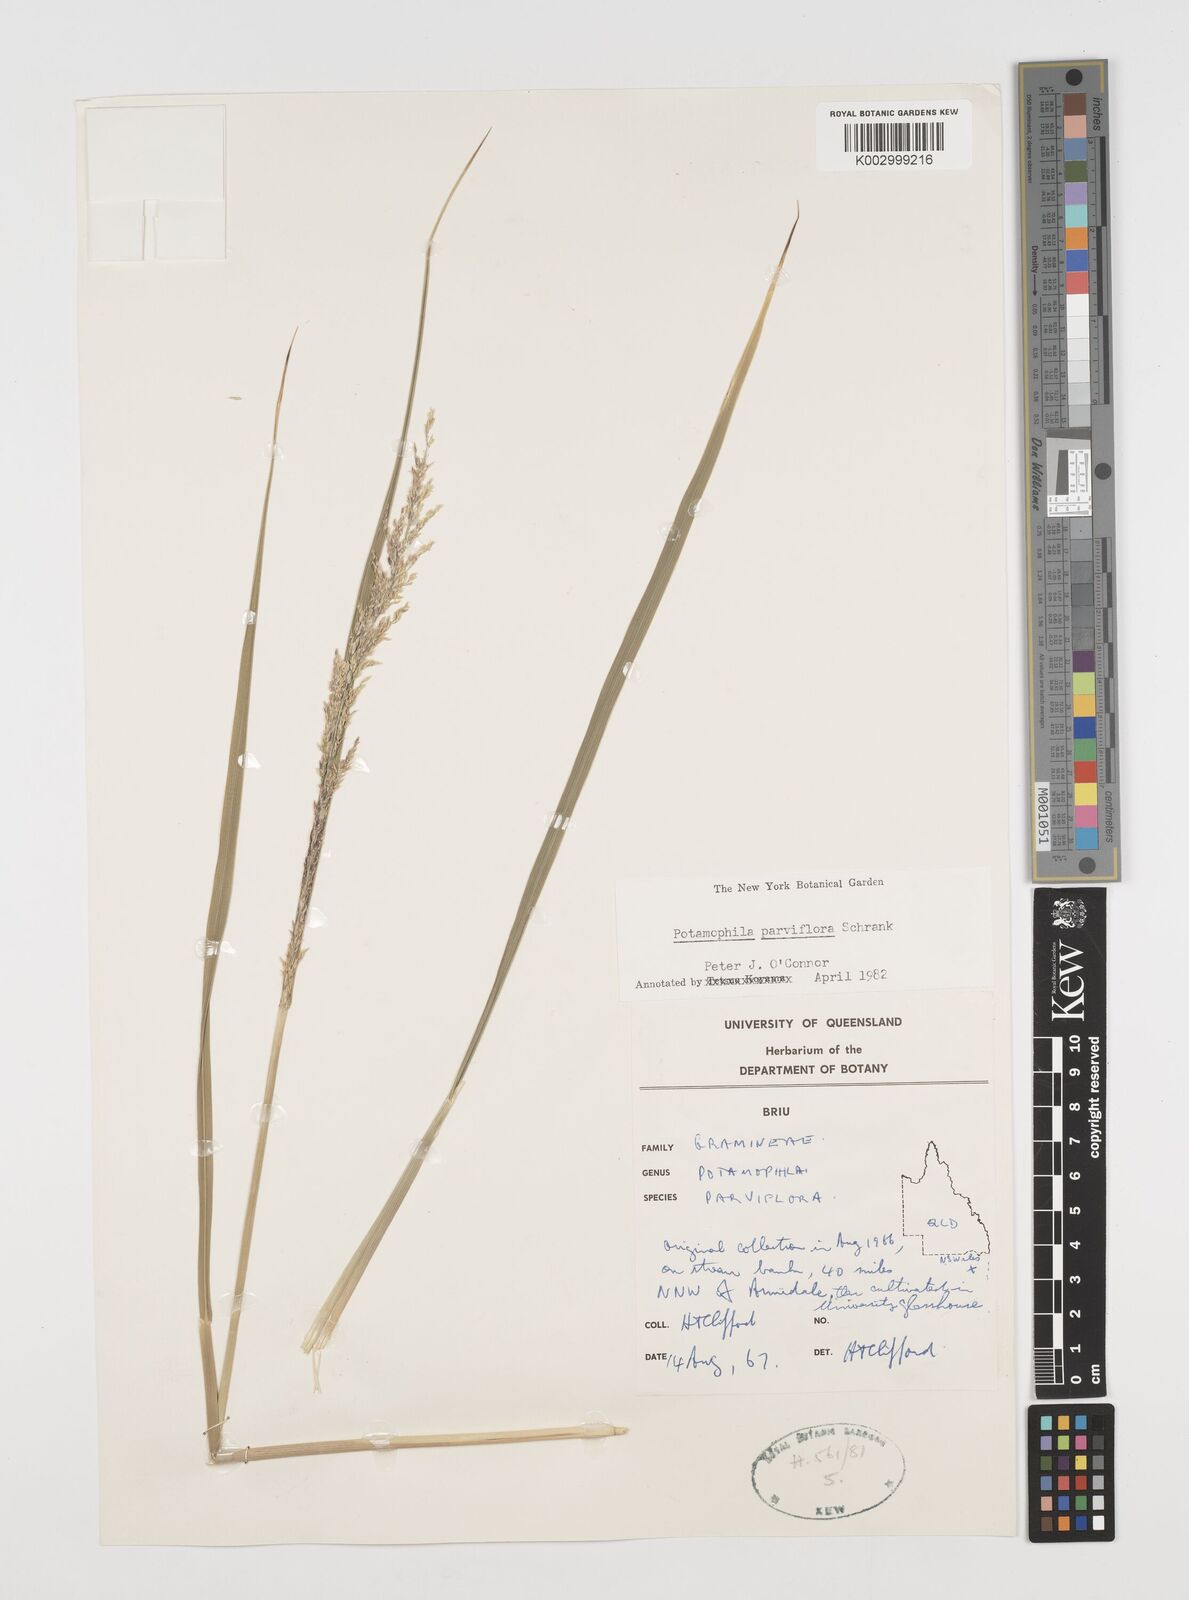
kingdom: Plantae
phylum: Tracheophyta
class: Magnoliopsida
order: Caryophyllales
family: Microteaceae
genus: Microtea
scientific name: Microtea maypurensis
